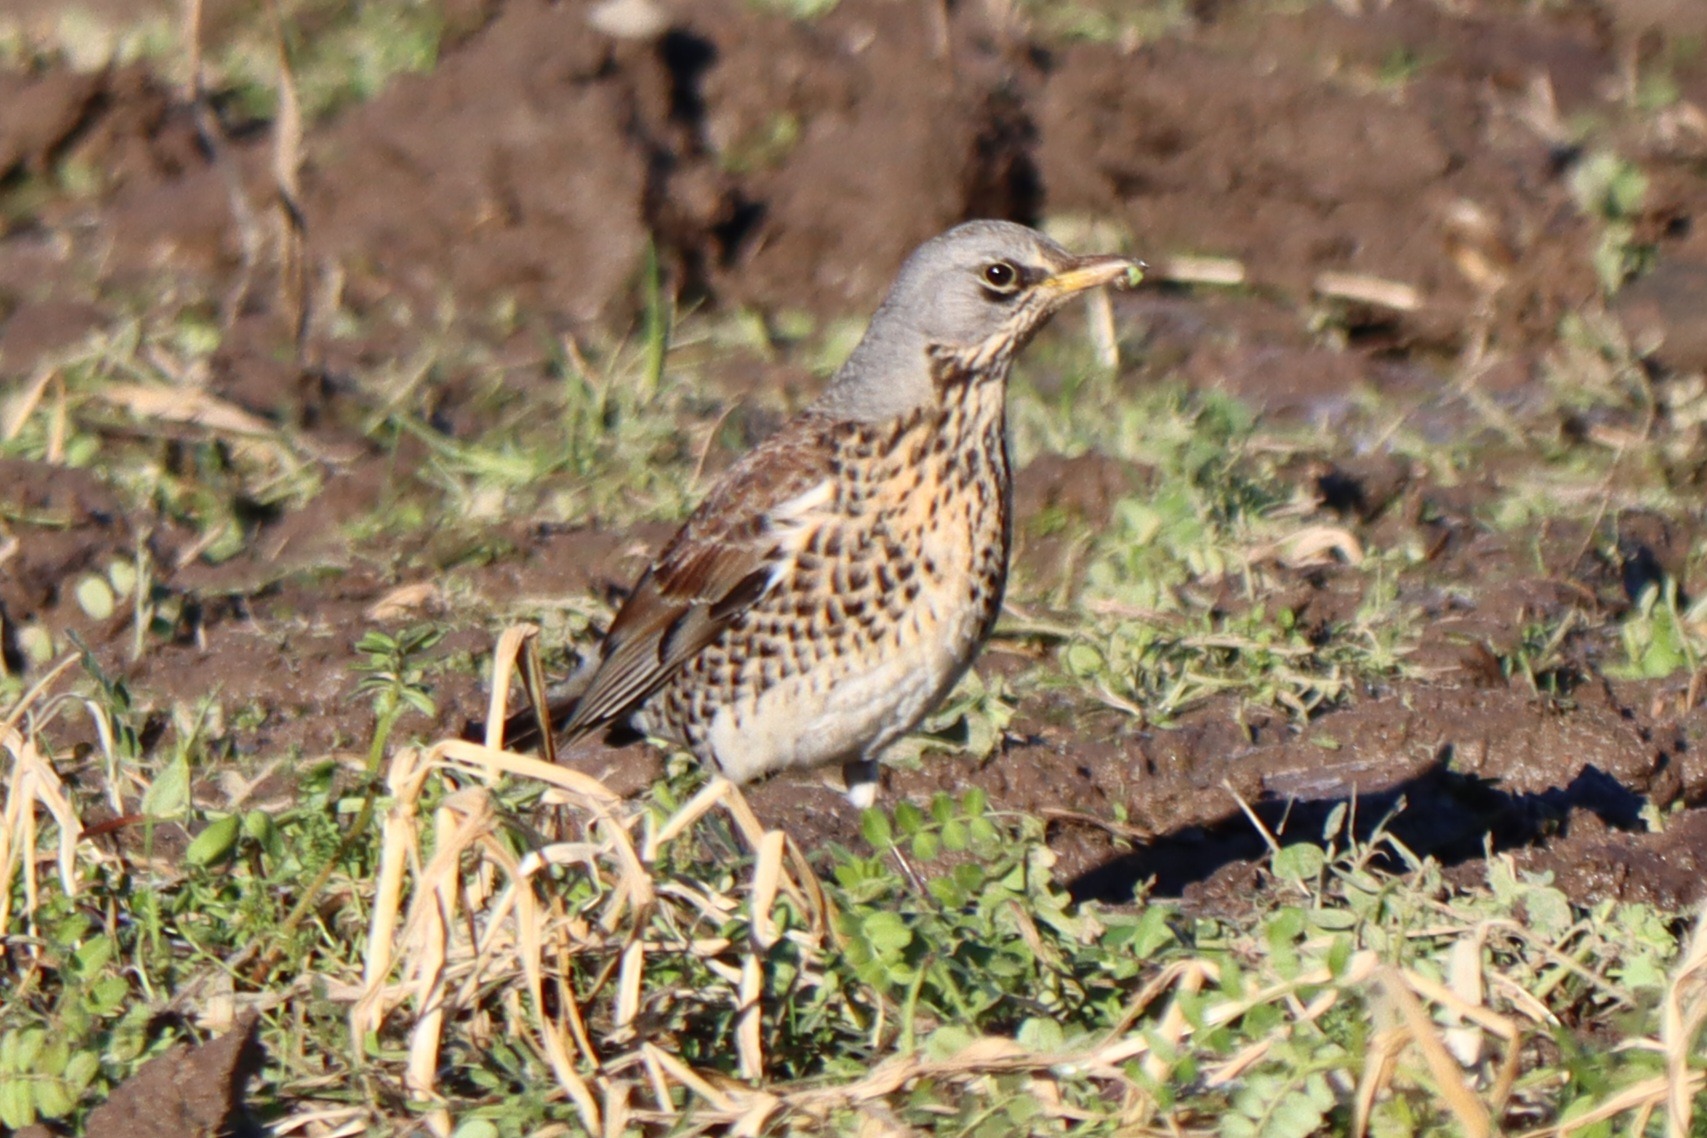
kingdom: Animalia
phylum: Chordata
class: Aves
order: Passeriformes
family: Turdidae
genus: Turdus
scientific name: Turdus pilaris
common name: Sjagger
